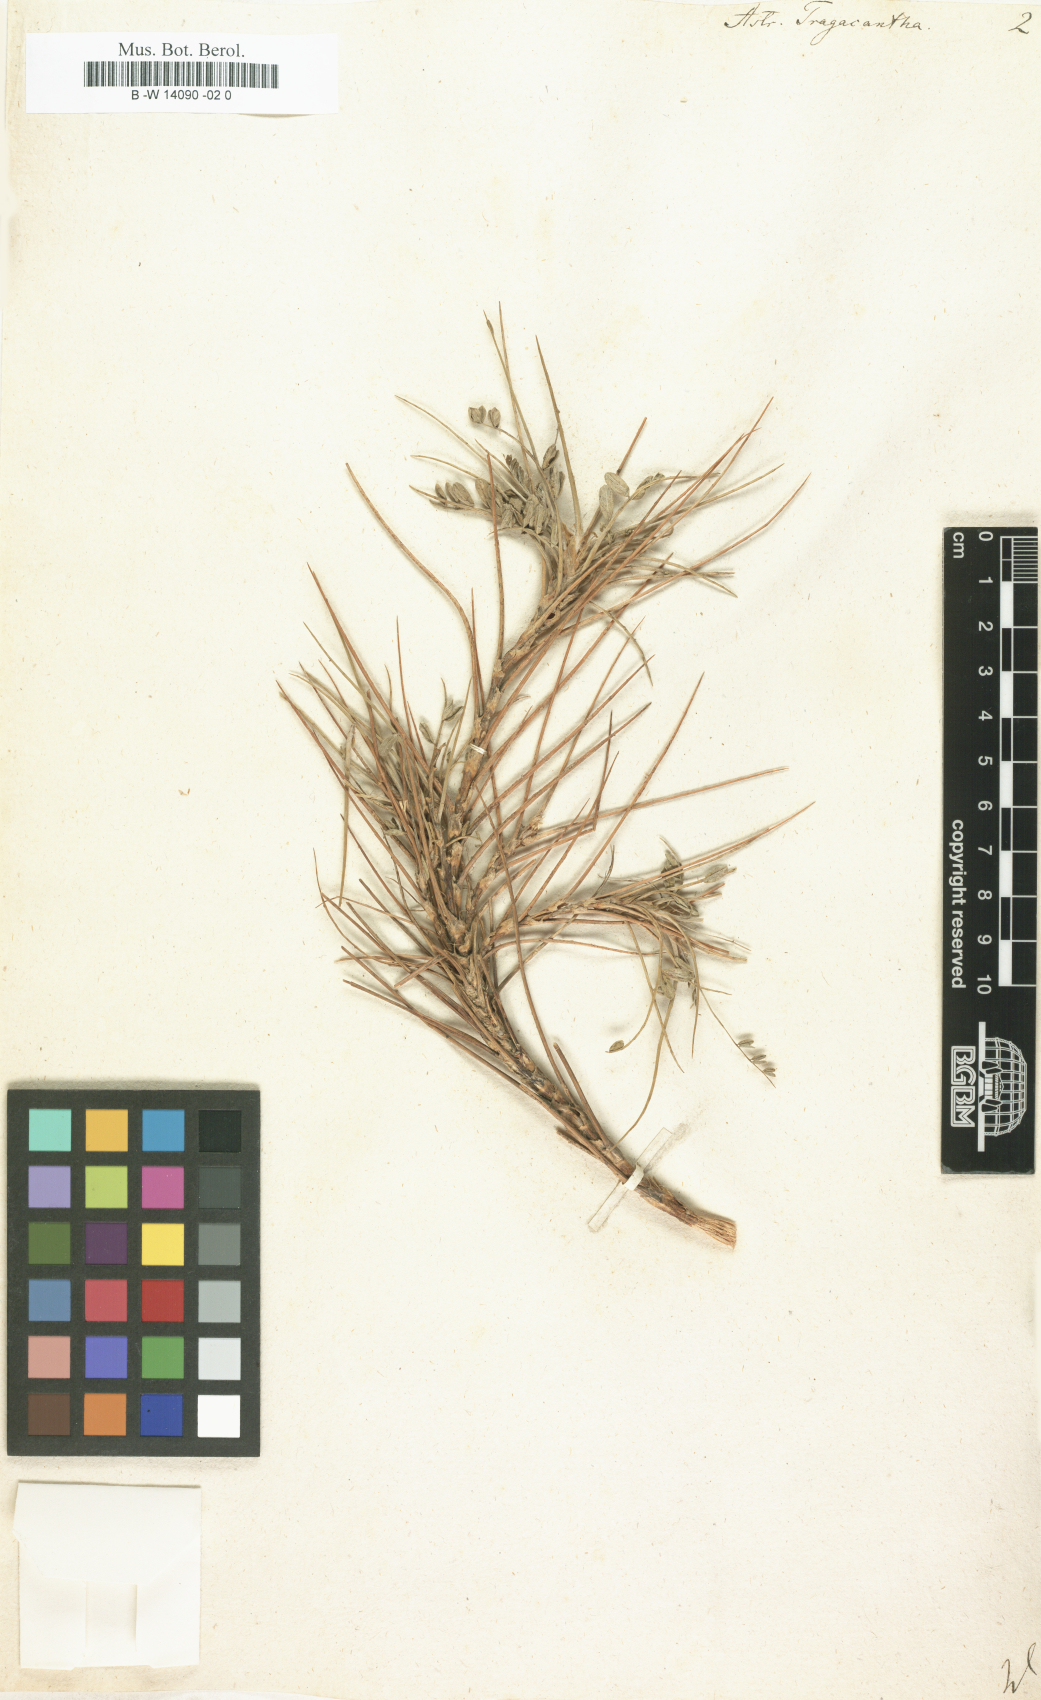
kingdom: Plantae
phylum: Tracheophyta
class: Magnoliopsida
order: Fabales
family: Fabaceae
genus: Astragalus
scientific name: Astragalus tragacantha
